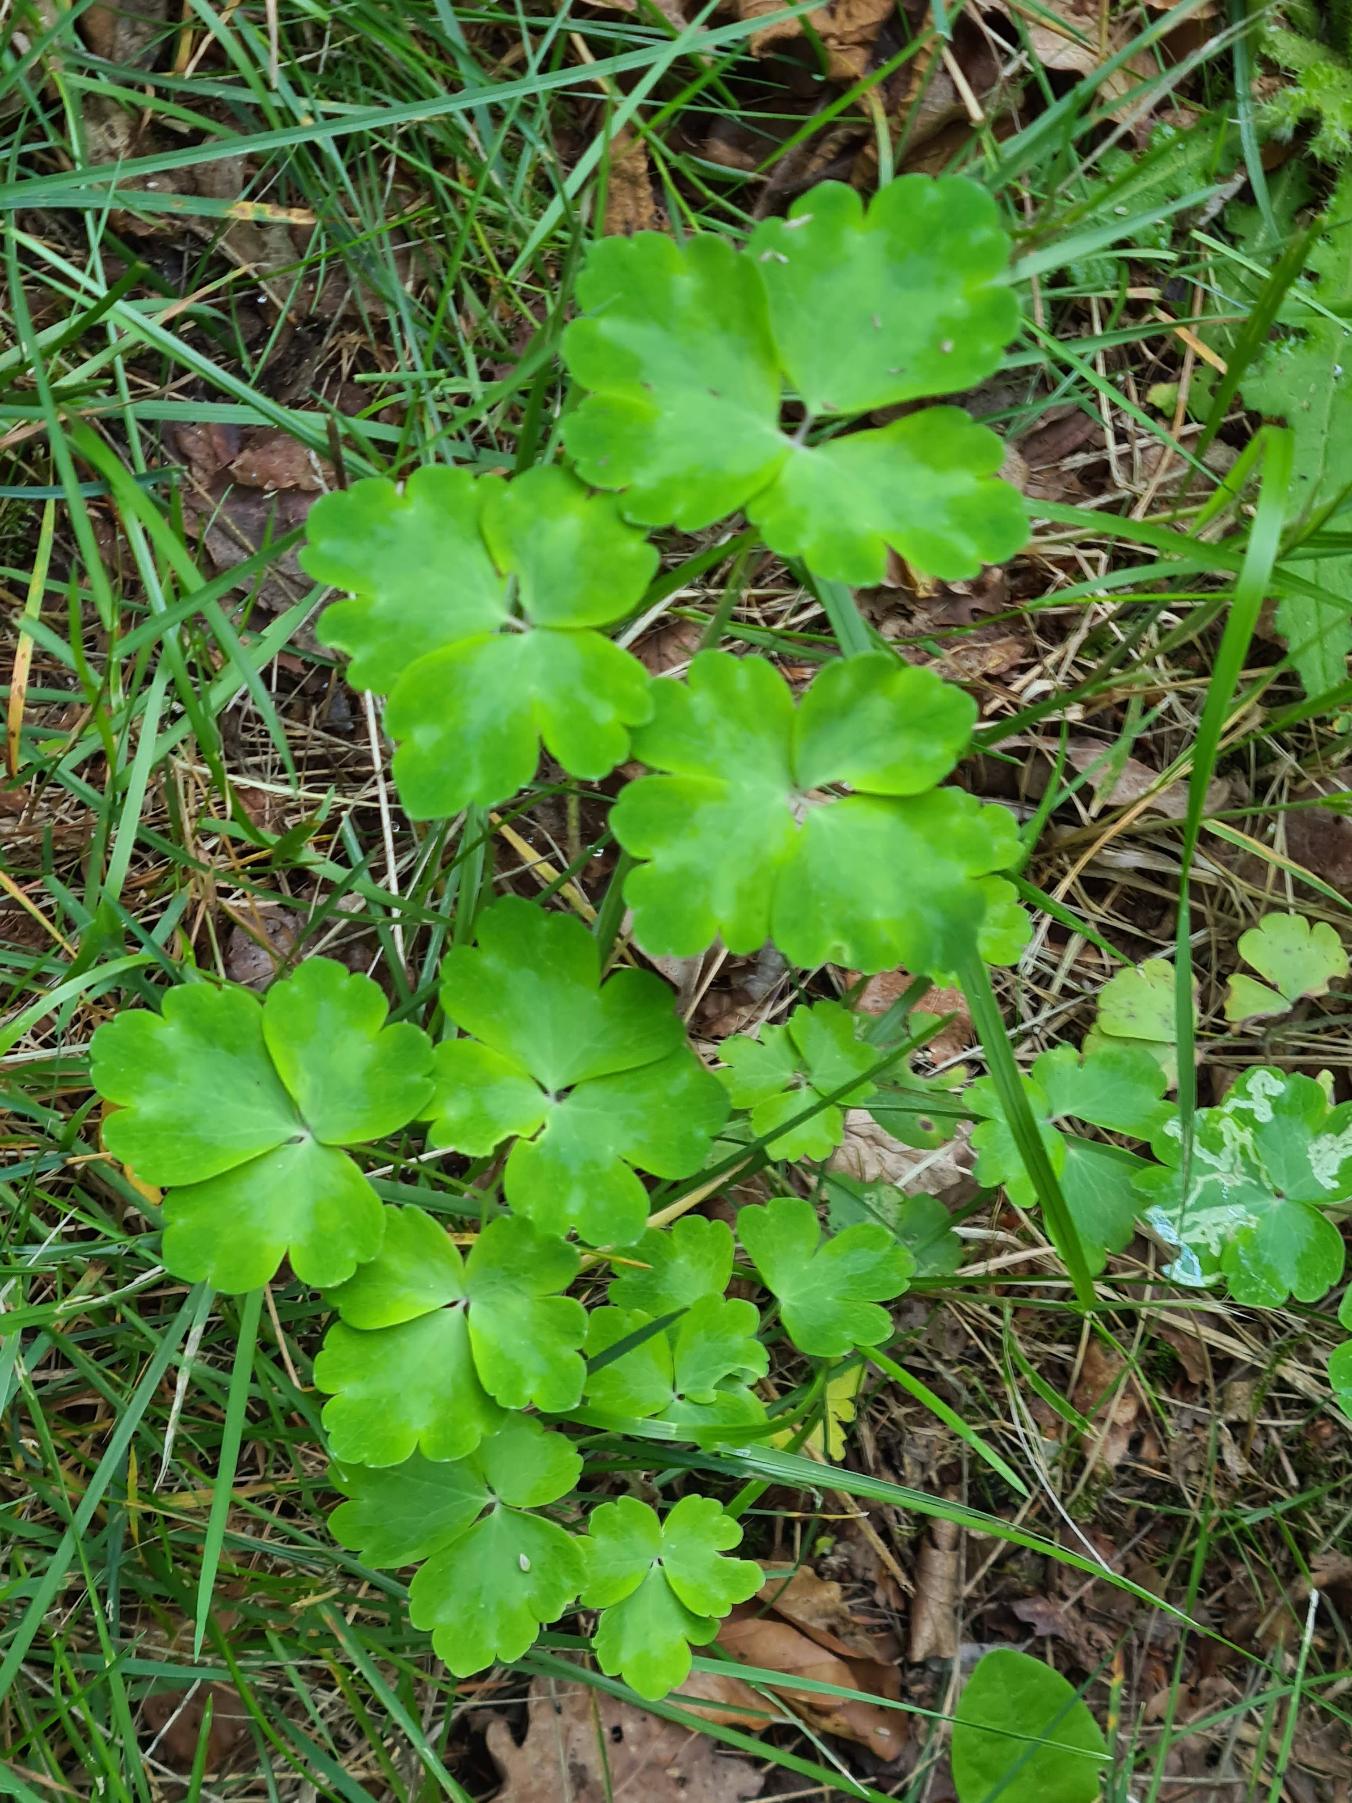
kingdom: Plantae
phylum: Tracheophyta
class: Magnoliopsida
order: Ranunculales
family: Ranunculaceae
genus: Aquilegia
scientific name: Aquilegia vulgaris
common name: Akeleje
